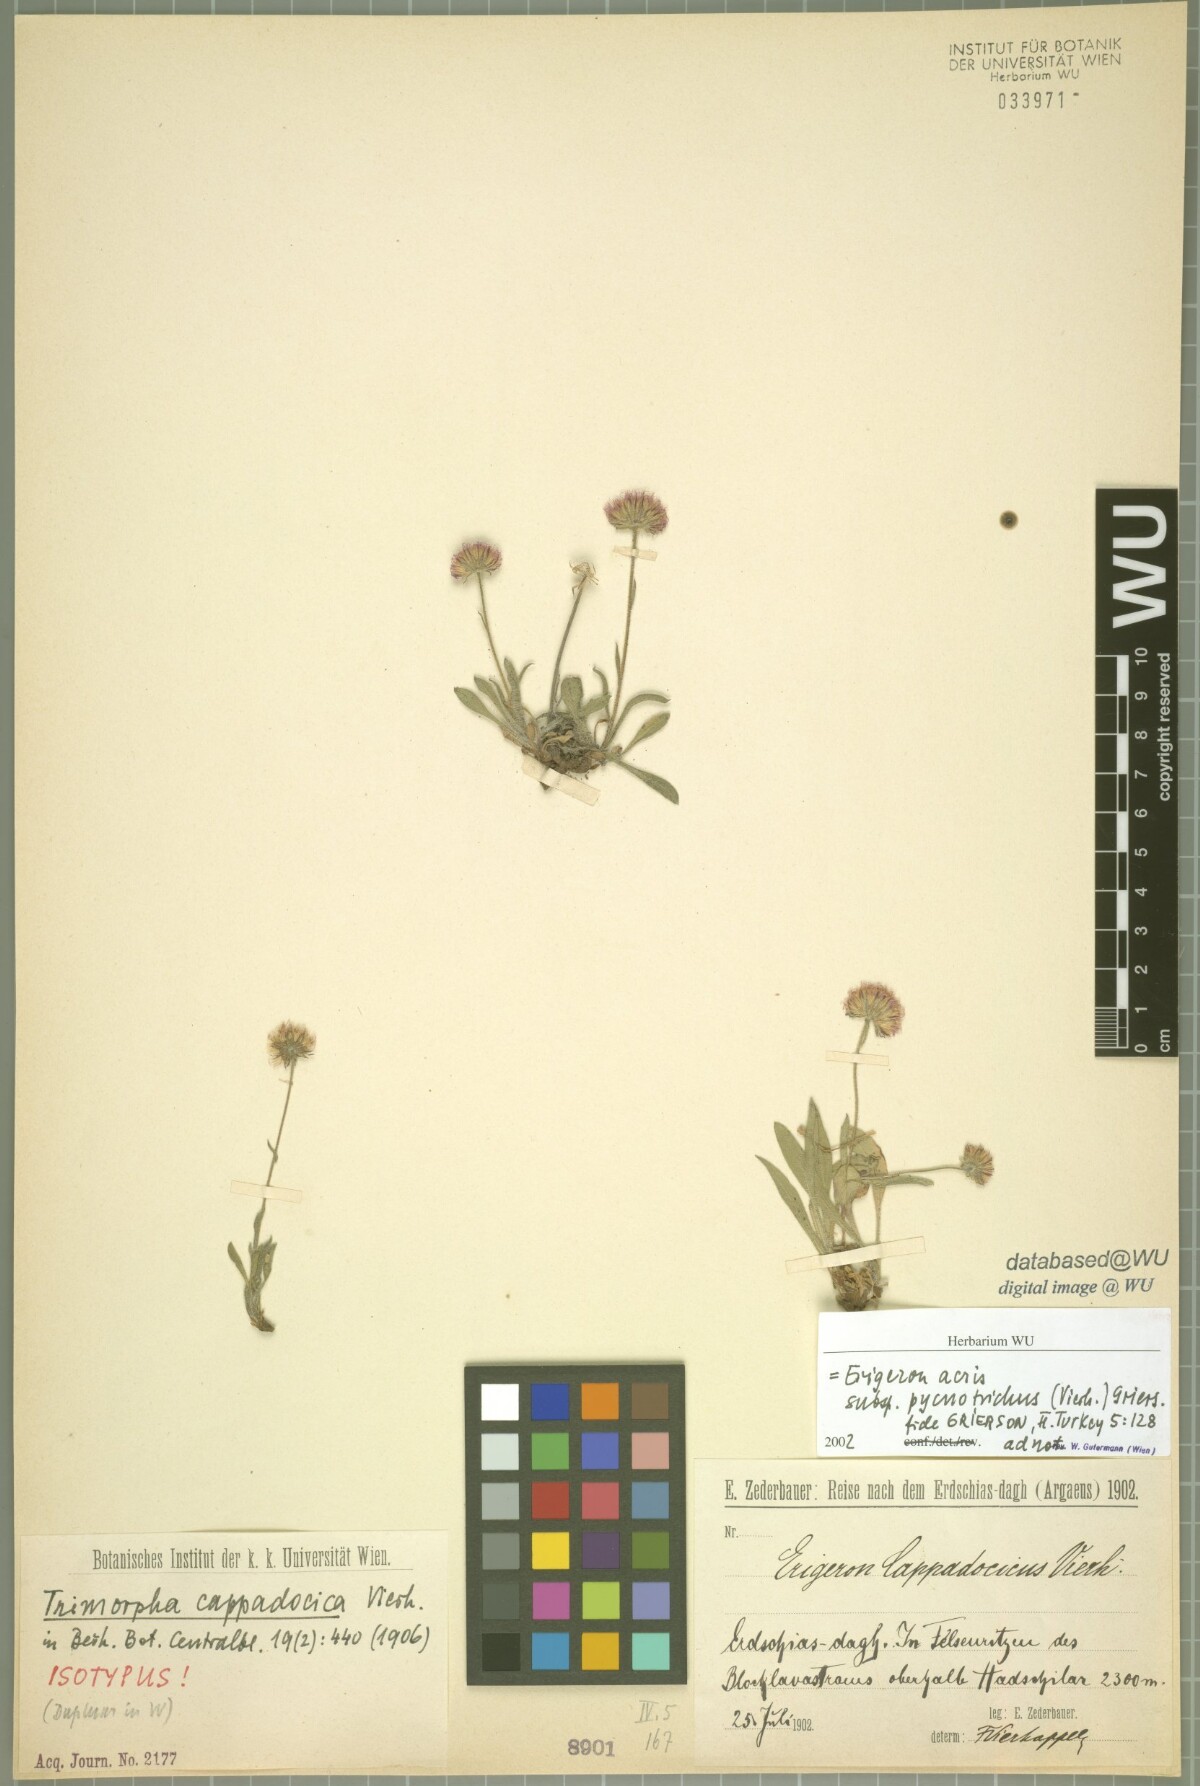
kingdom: Plantae
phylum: Tracheophyta
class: Magnoliopsida
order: Asterales
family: Asteraceae
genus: Erigeron
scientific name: Erigeron acris
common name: Blue fleabane
